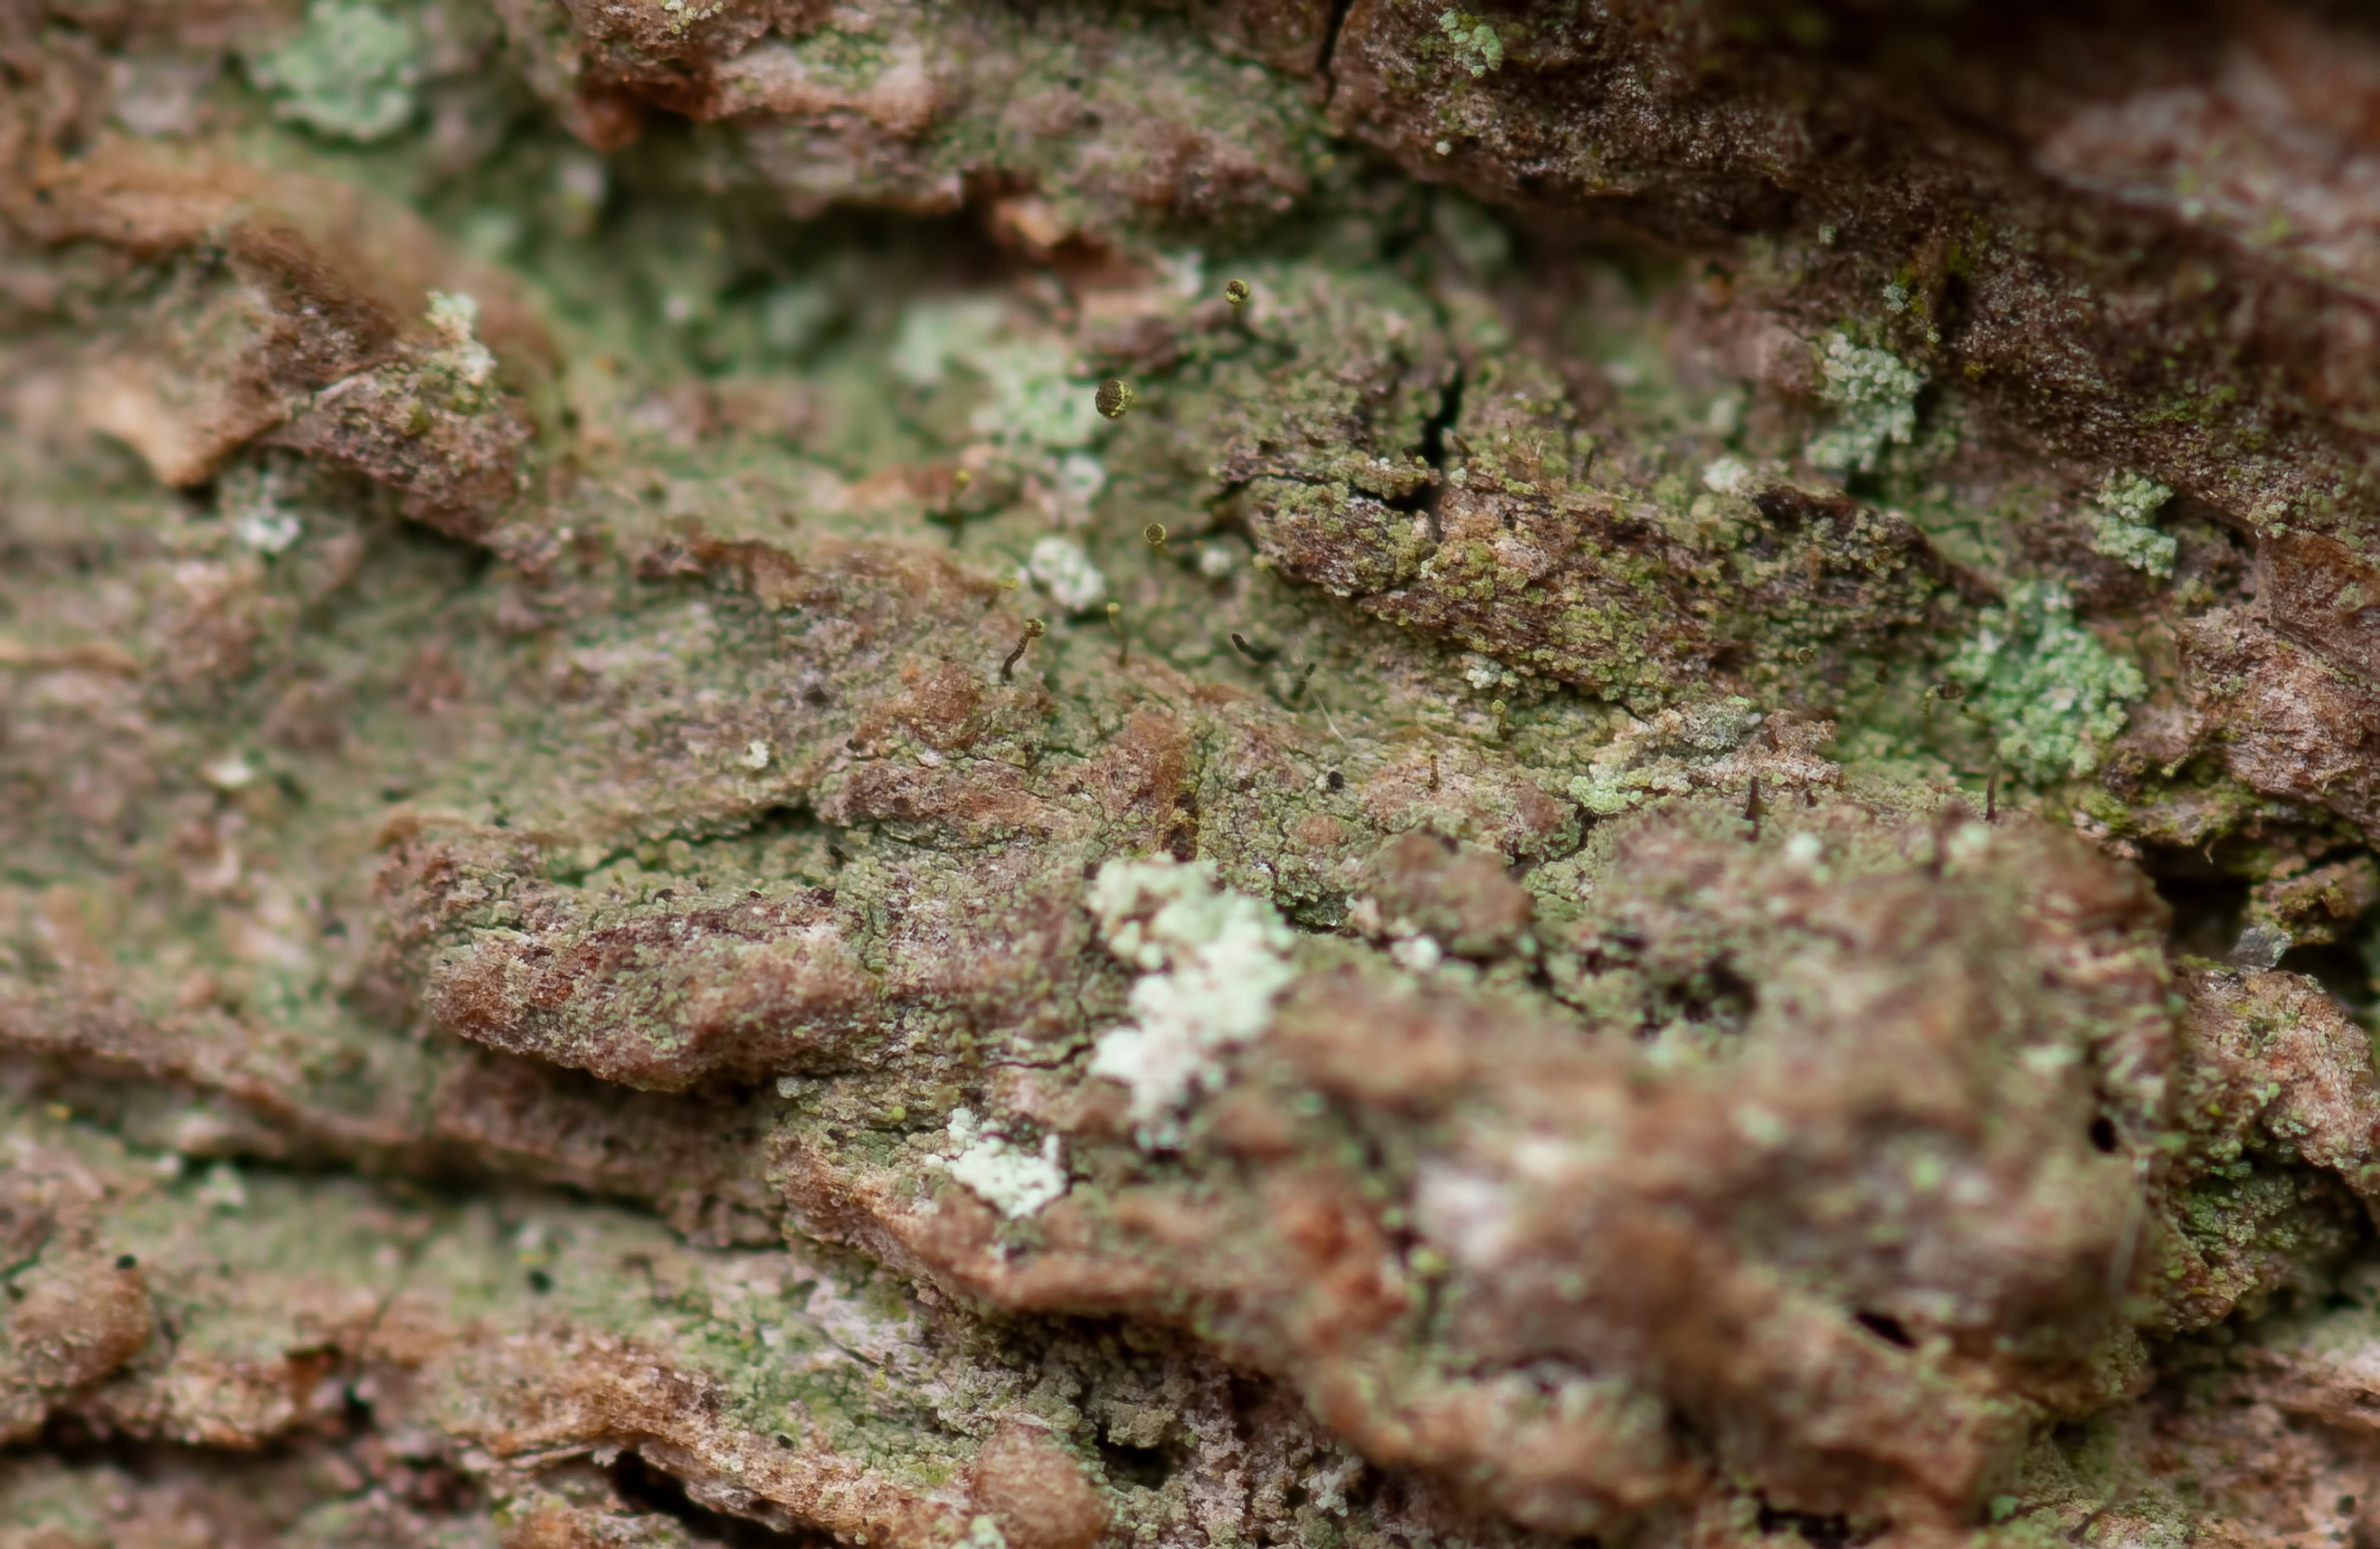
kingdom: Fungi
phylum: Ascomycota
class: Coniocybomycetes
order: Coniocybales
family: Coniocybaceae
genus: Chaenotheca
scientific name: Chaenotheca chlorella
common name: Grønlig knappenålslav
